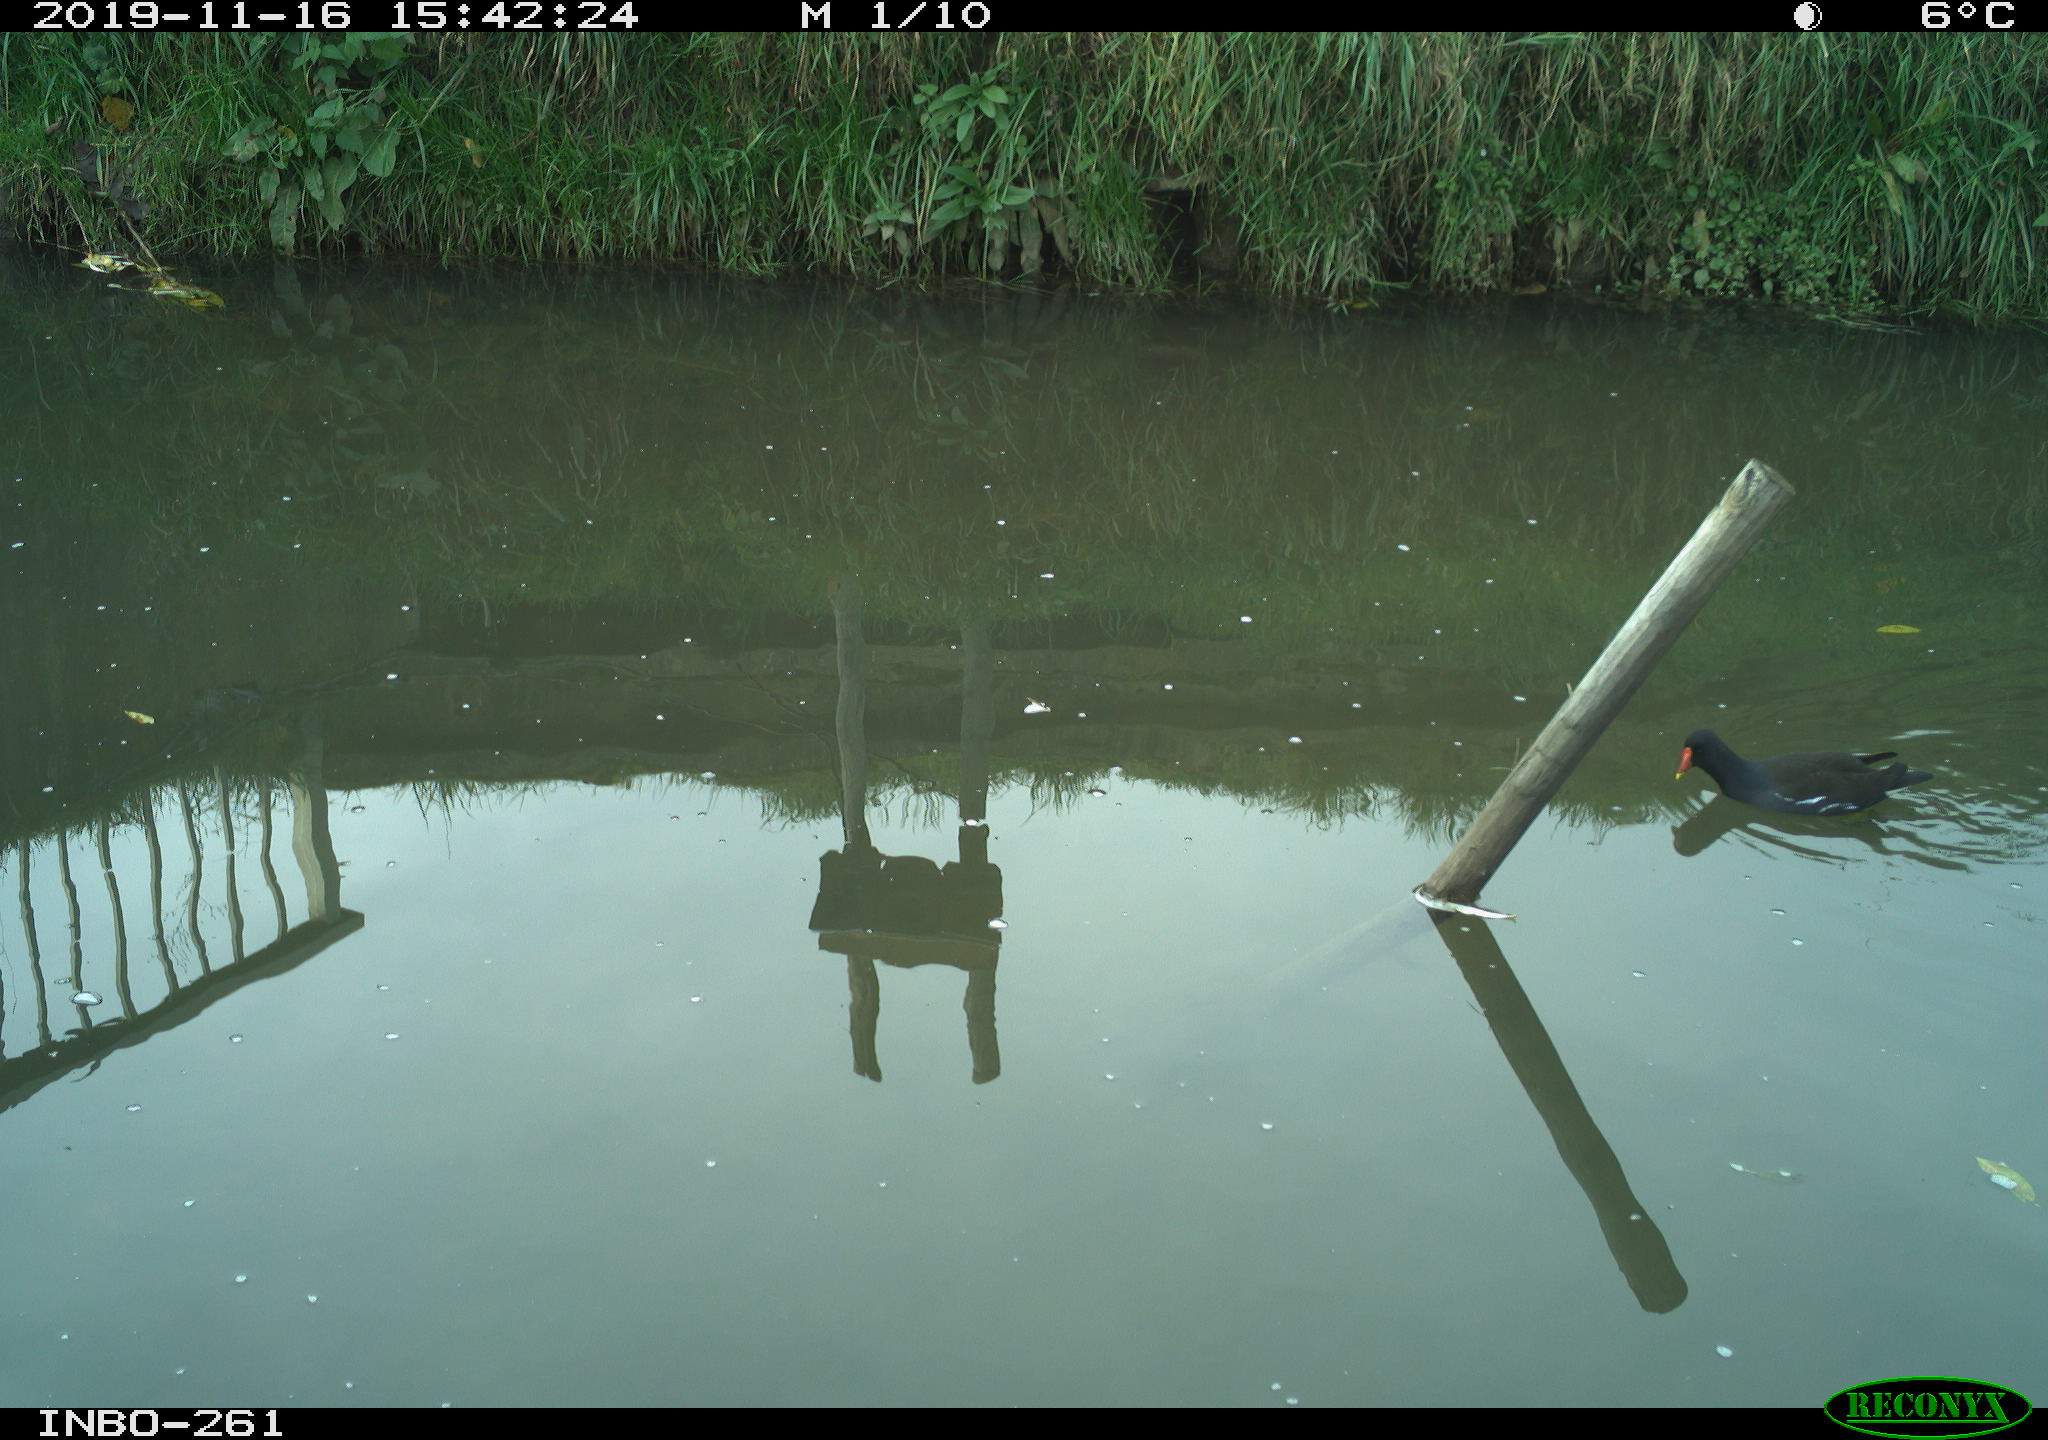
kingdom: Animalia
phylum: Chordata
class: Aves
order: Gruiformes
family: Rallidae
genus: Gallinula
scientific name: Gallinula chloropus
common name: Common moorhen
